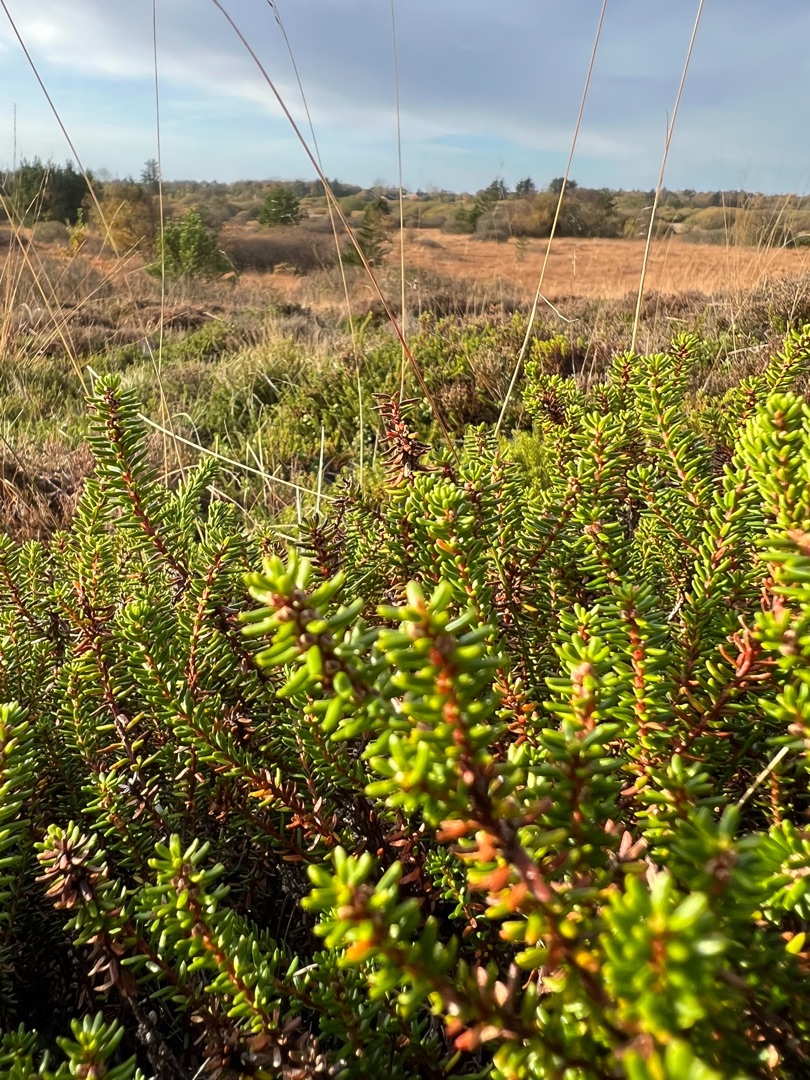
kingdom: Plantae
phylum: Tracheophyta
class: Magnoliopsida
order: Ericales
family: Ericaceae
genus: Empetrum
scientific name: Empetrum nigrum
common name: Revling
